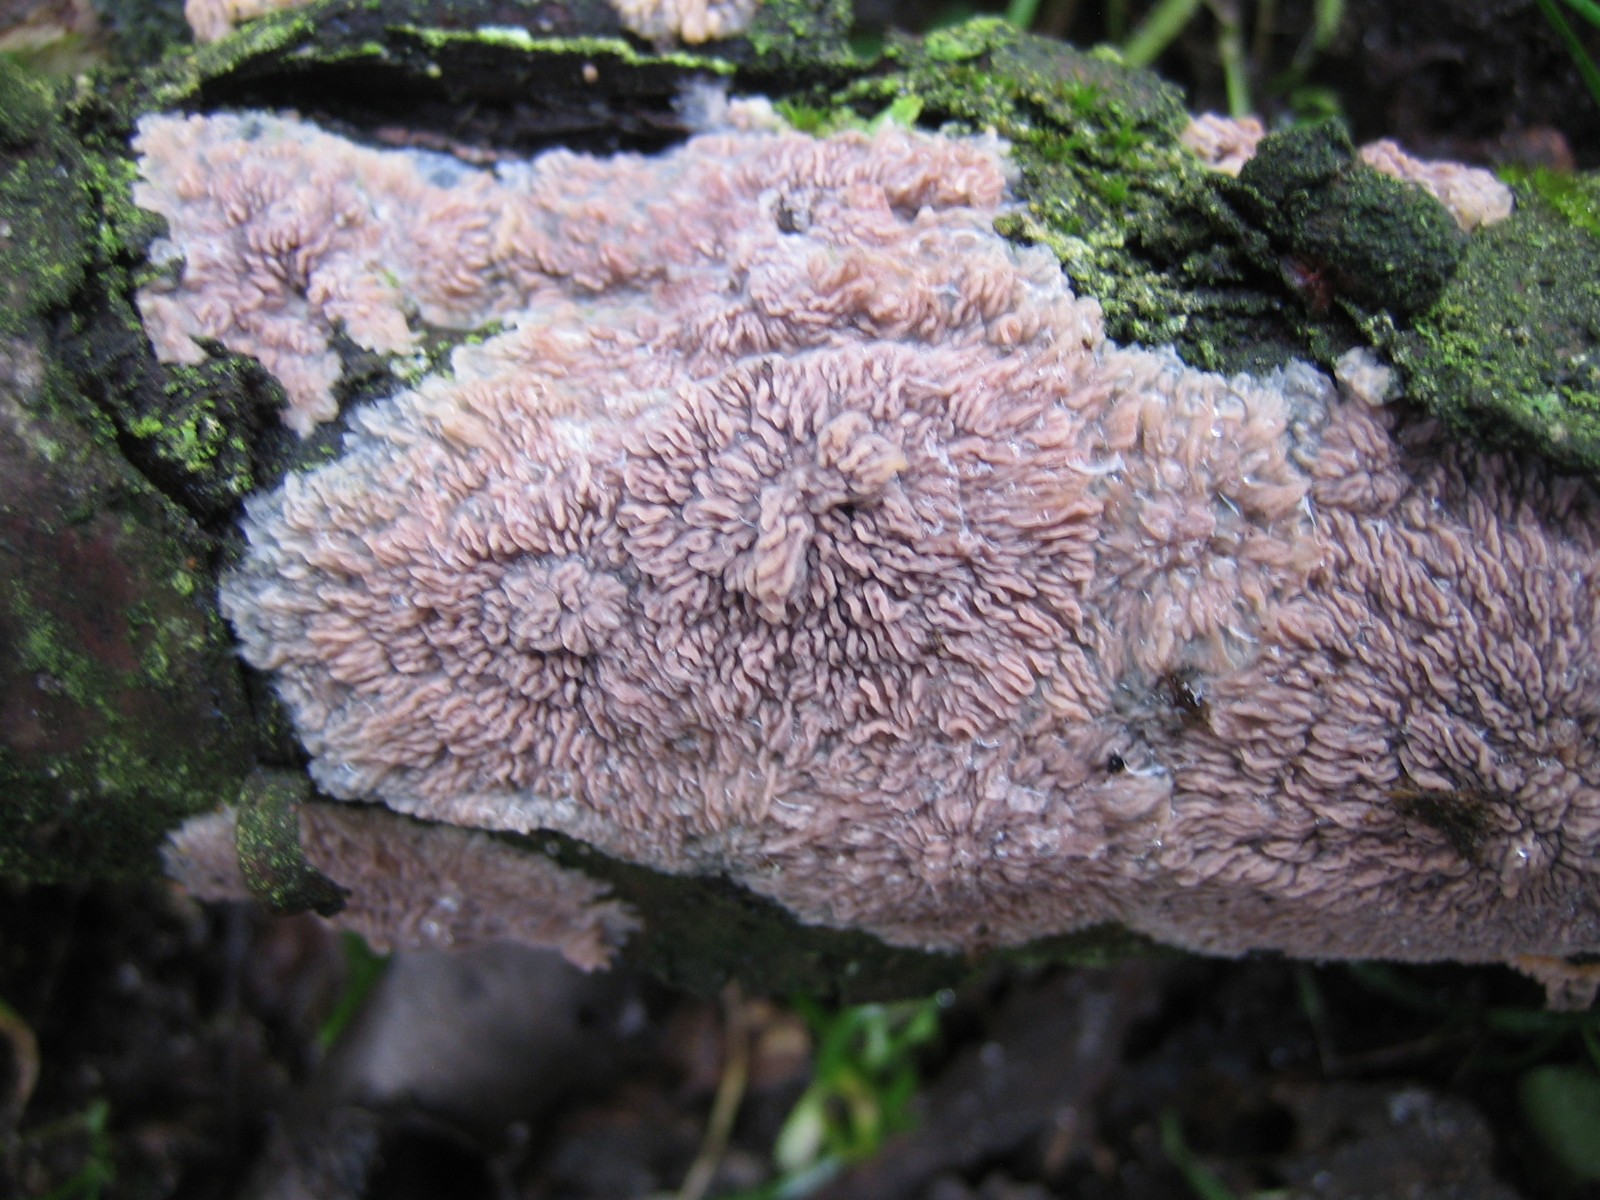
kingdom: Fungi
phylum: Basidiomycota
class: Agaricomycetes
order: Polyporales
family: Meruliaceae
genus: Phlebia
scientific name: Phlebia radiata
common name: stråle-åresvamp
